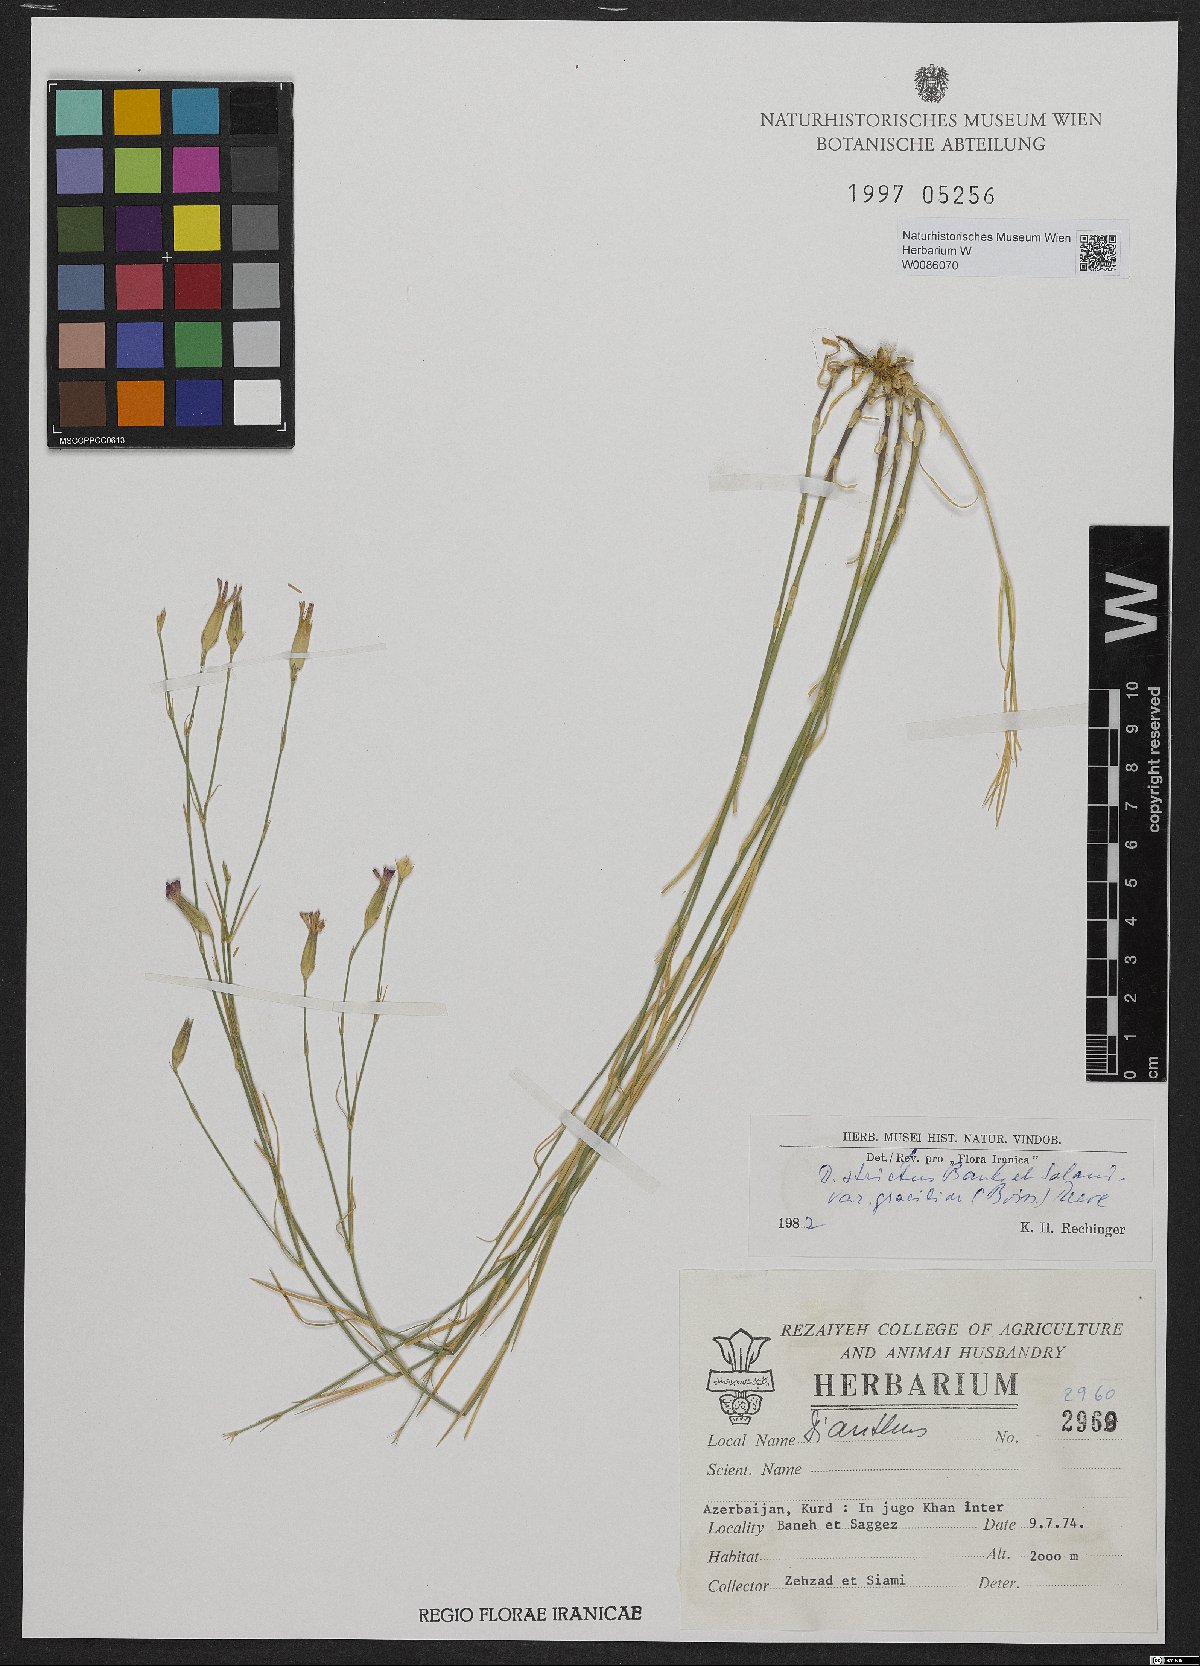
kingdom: Plantae
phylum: Tracheophyta
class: Magnoliopsida
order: Caryophyllales
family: Caryophyllaceae
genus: Dianthus
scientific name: Dianthus strictus
